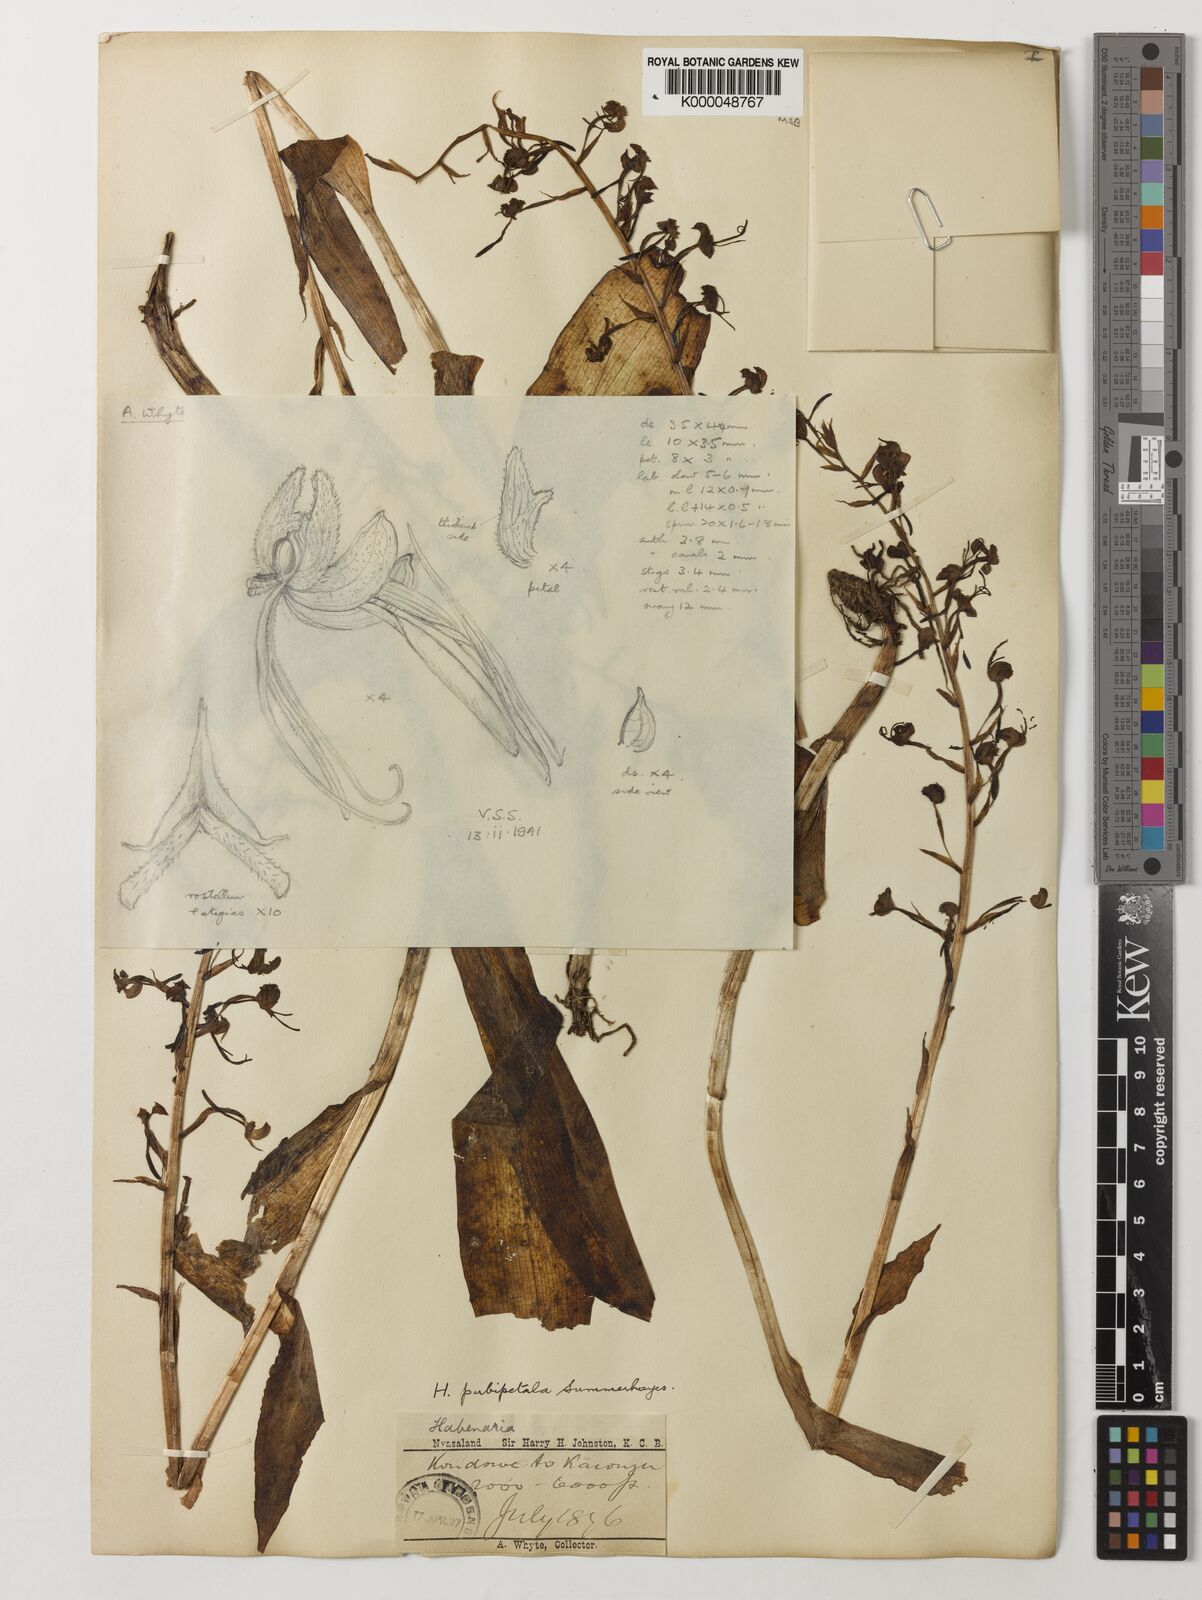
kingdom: Plantae
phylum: Tracheophyta
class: Liliopsida
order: Asparagales
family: Orchidaceae
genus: Habenaria
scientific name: Habenaria pubipetala
